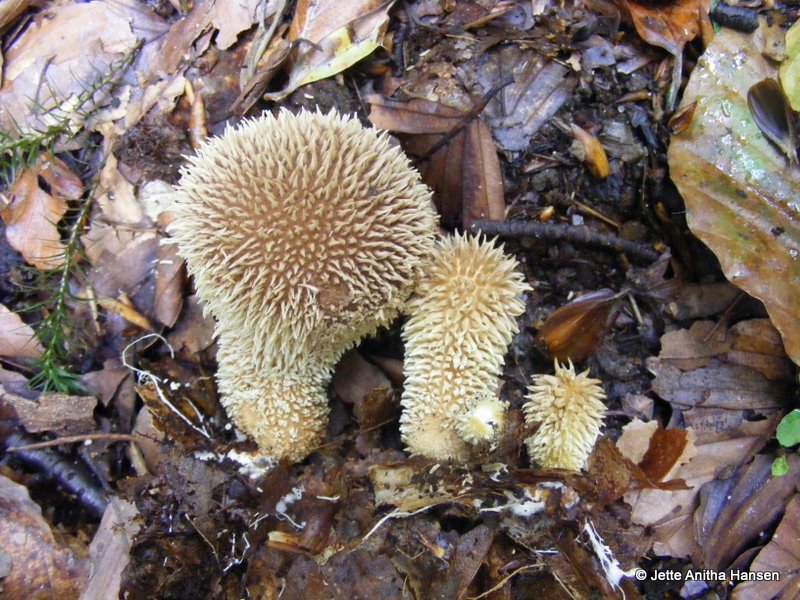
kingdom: Fungi
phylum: Basidiomycota
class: Agaricomycetes
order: Agaricales
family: Lycoperdaceae
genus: Lycoperdon
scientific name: Lycoperdon echinatum
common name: pindsvine-støvbold
